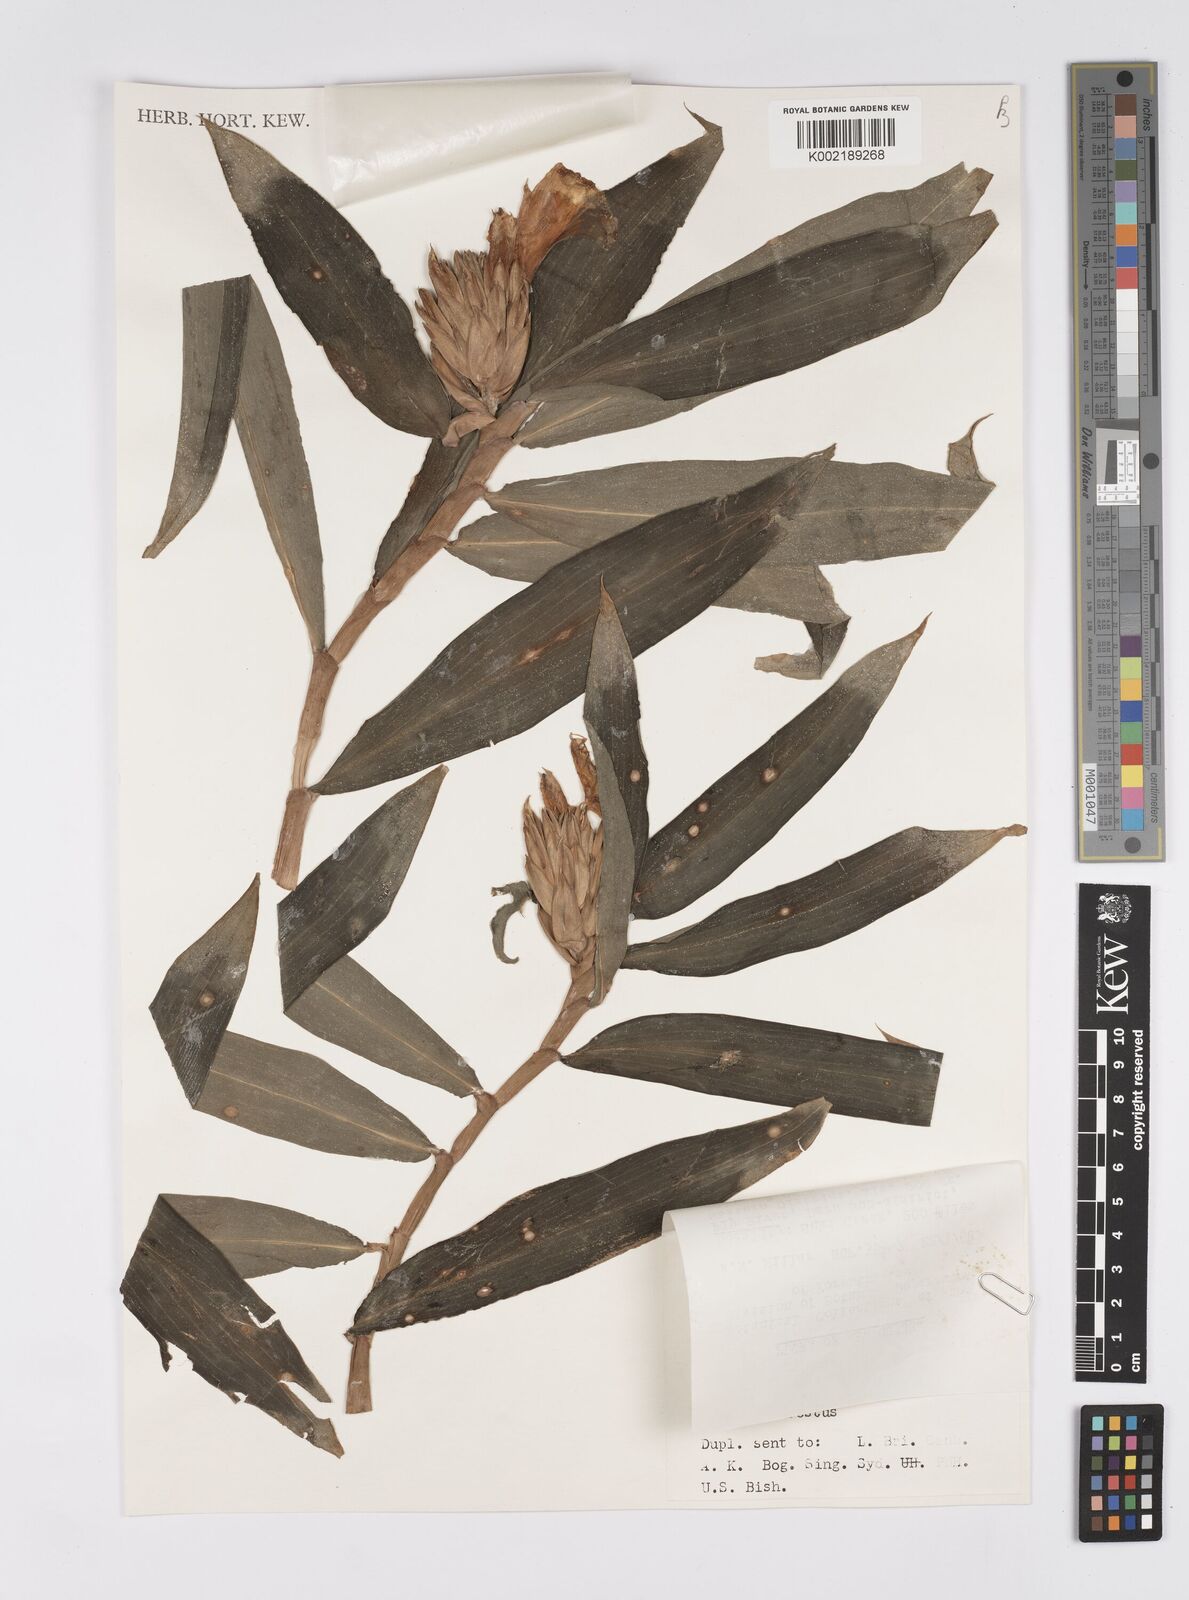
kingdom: Plantae
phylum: Tracheophyta
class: Liliopsida
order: Zingiberales
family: Costaceae
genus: Hellenia
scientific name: Hellenia speciosa
